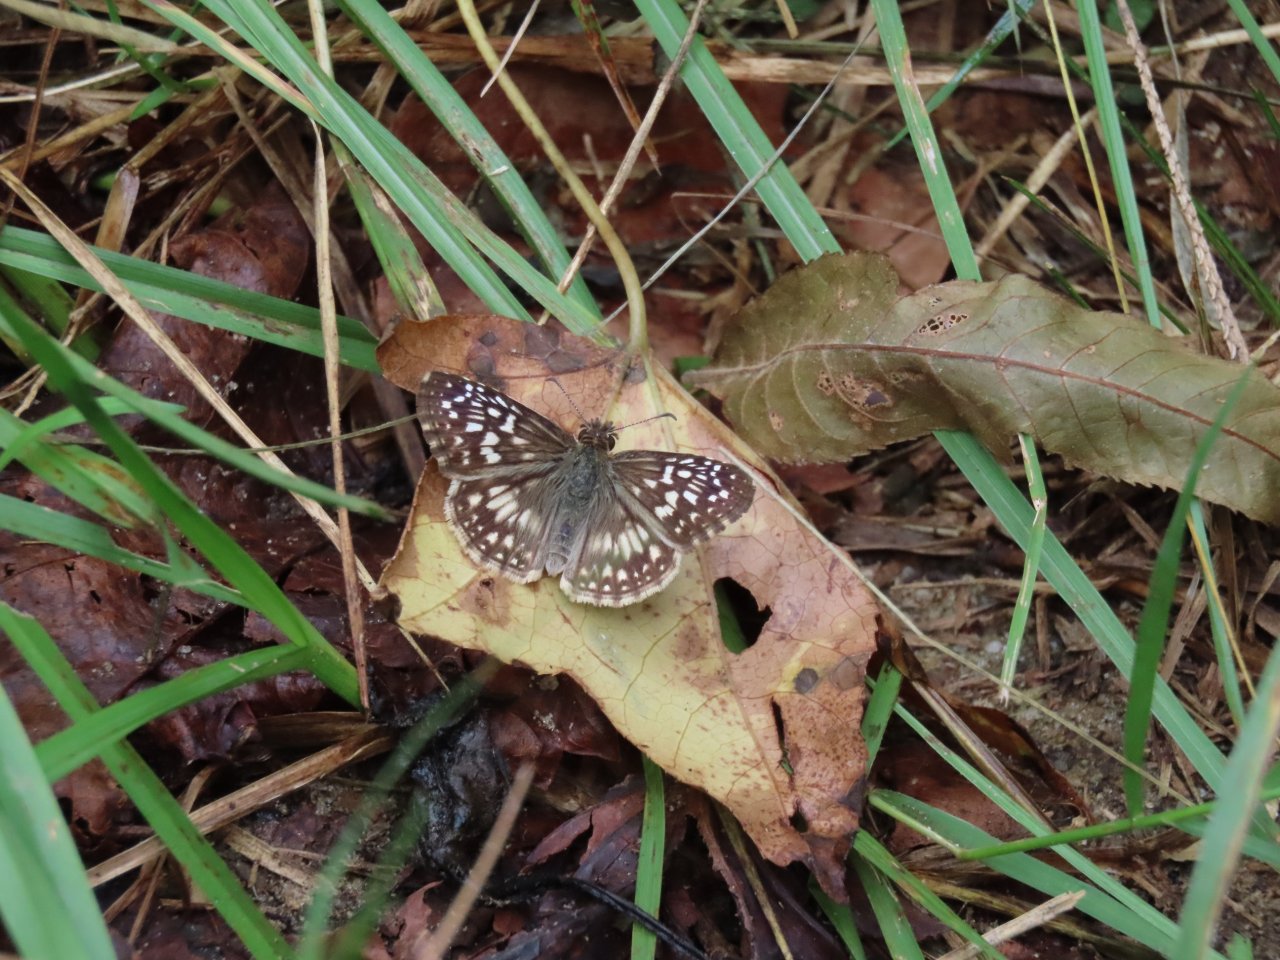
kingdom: Animalia
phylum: Arthropoda
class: Insecta
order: Lepidoptera
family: Hesperiidae
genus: Pyrgus
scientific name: Pyrgus oileus
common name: Tropical Checkered-Skipper
